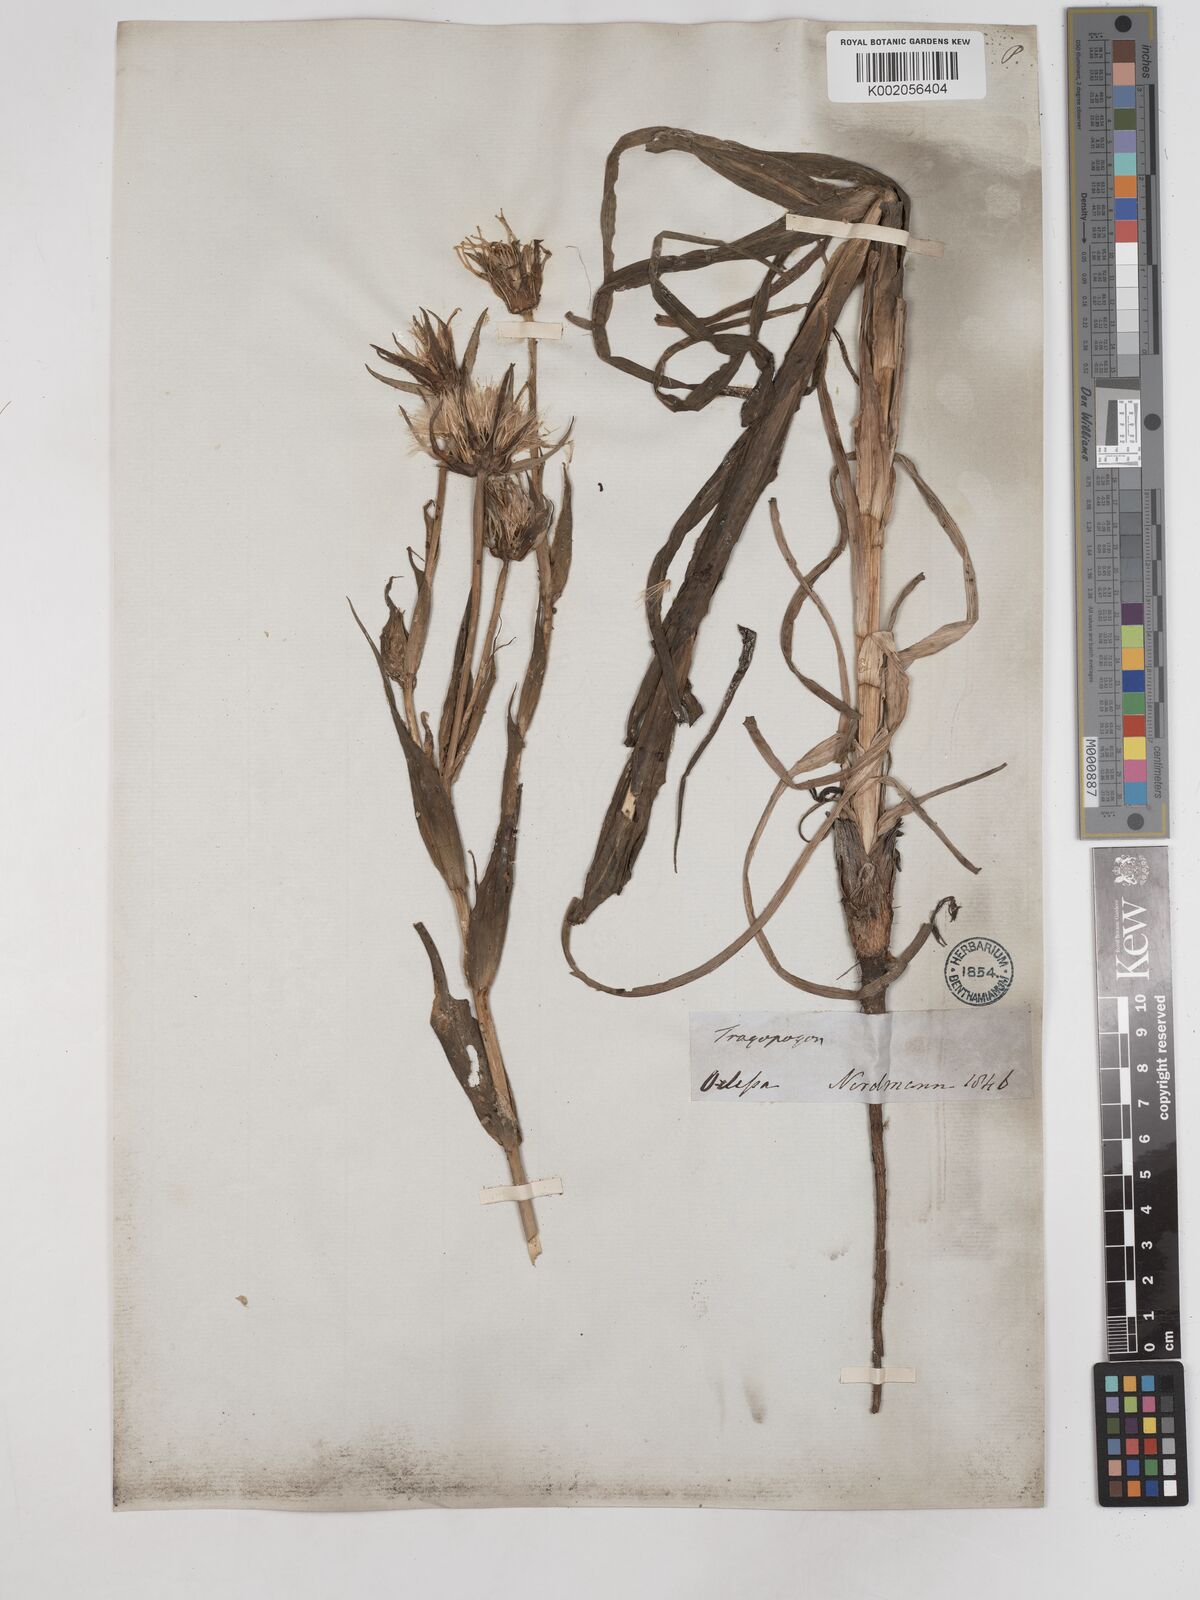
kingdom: Plantae
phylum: Tracheophyta
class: Magnoliopsida
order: Asterales
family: Asteraceae
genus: Tragopogon
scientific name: Tragopogon brevirostris
